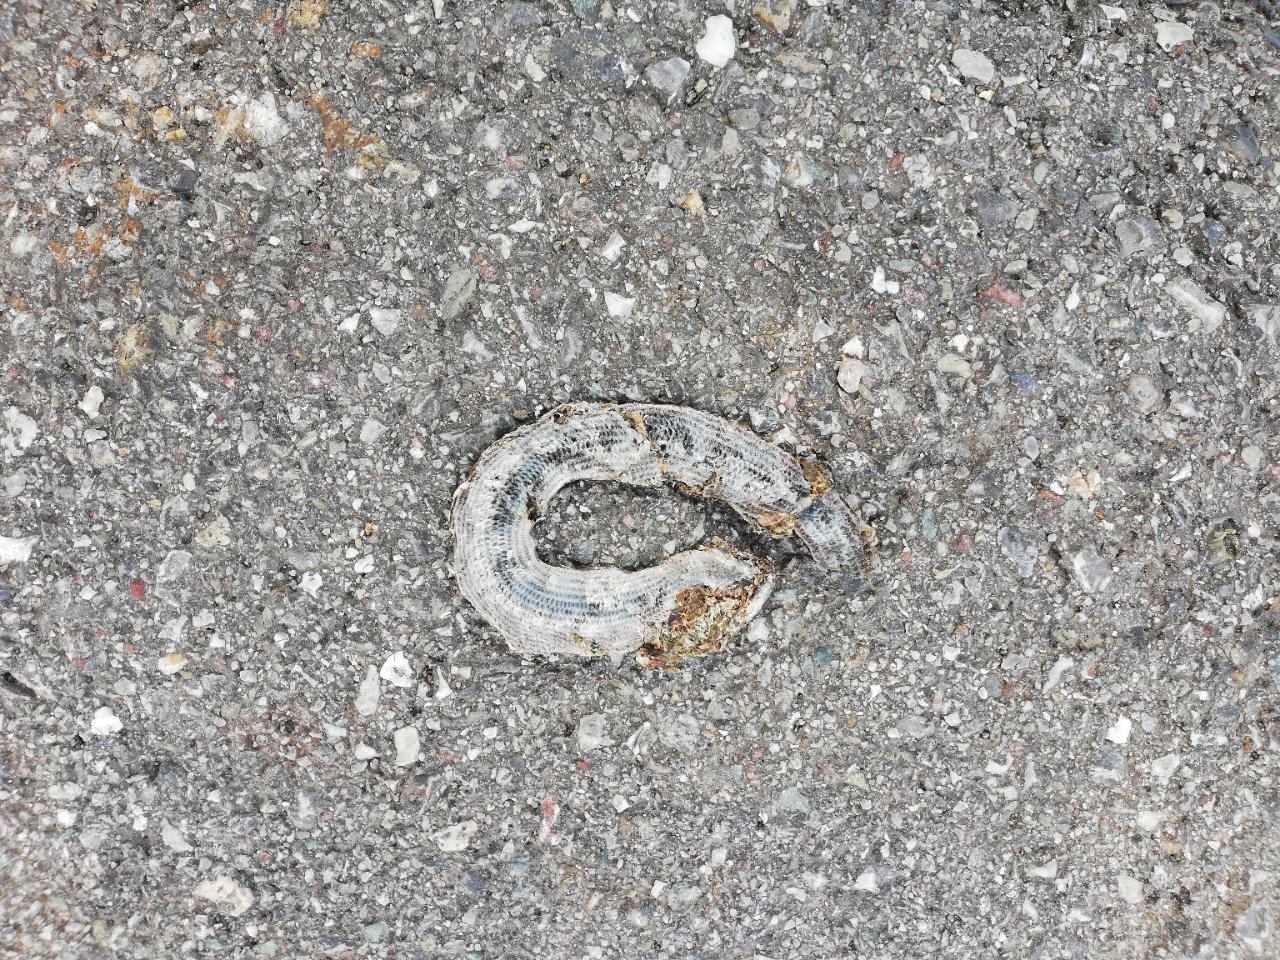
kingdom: Animalia
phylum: Chordata
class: Squamata
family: Anguidae
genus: Anguis
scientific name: Anguis fragilis
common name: Slow worm
